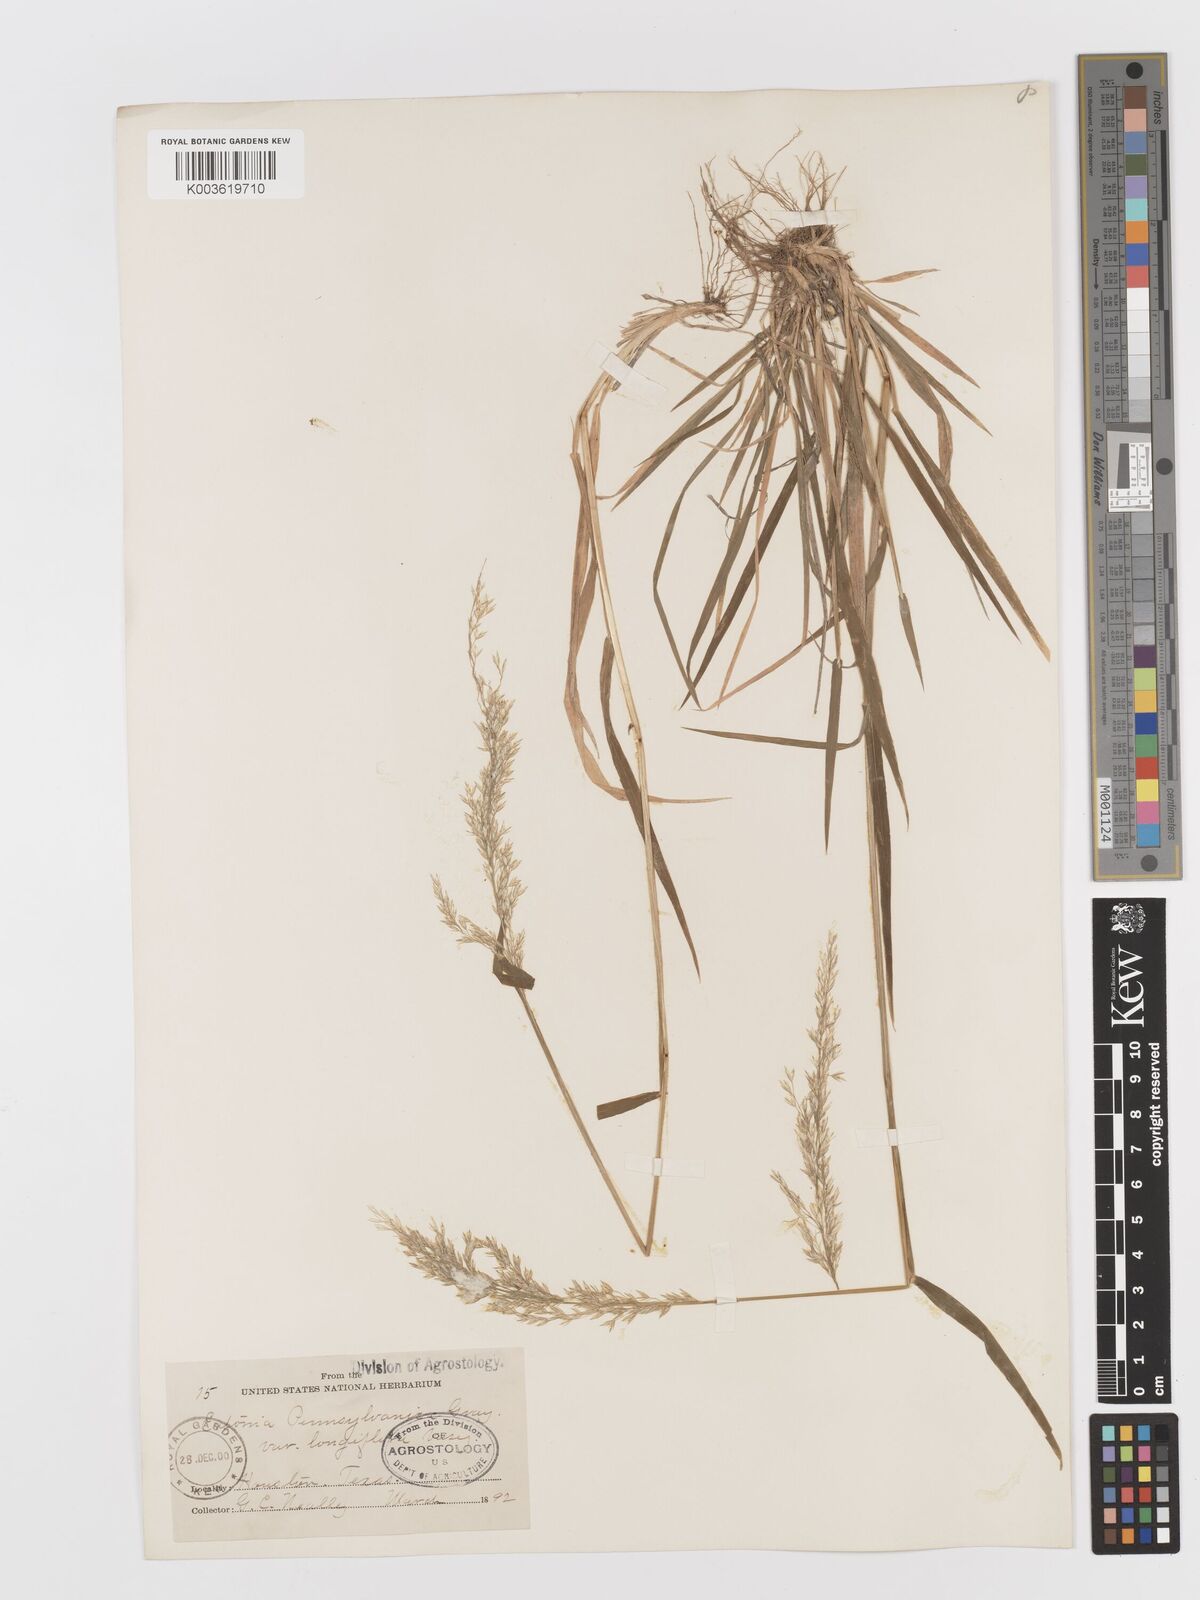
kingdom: Plantae
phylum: Tracheophyta
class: Liliopsida
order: Poales
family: Poaceae
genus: Sphenopholis
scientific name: Sphenopholis obtusata
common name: Prairie grass
